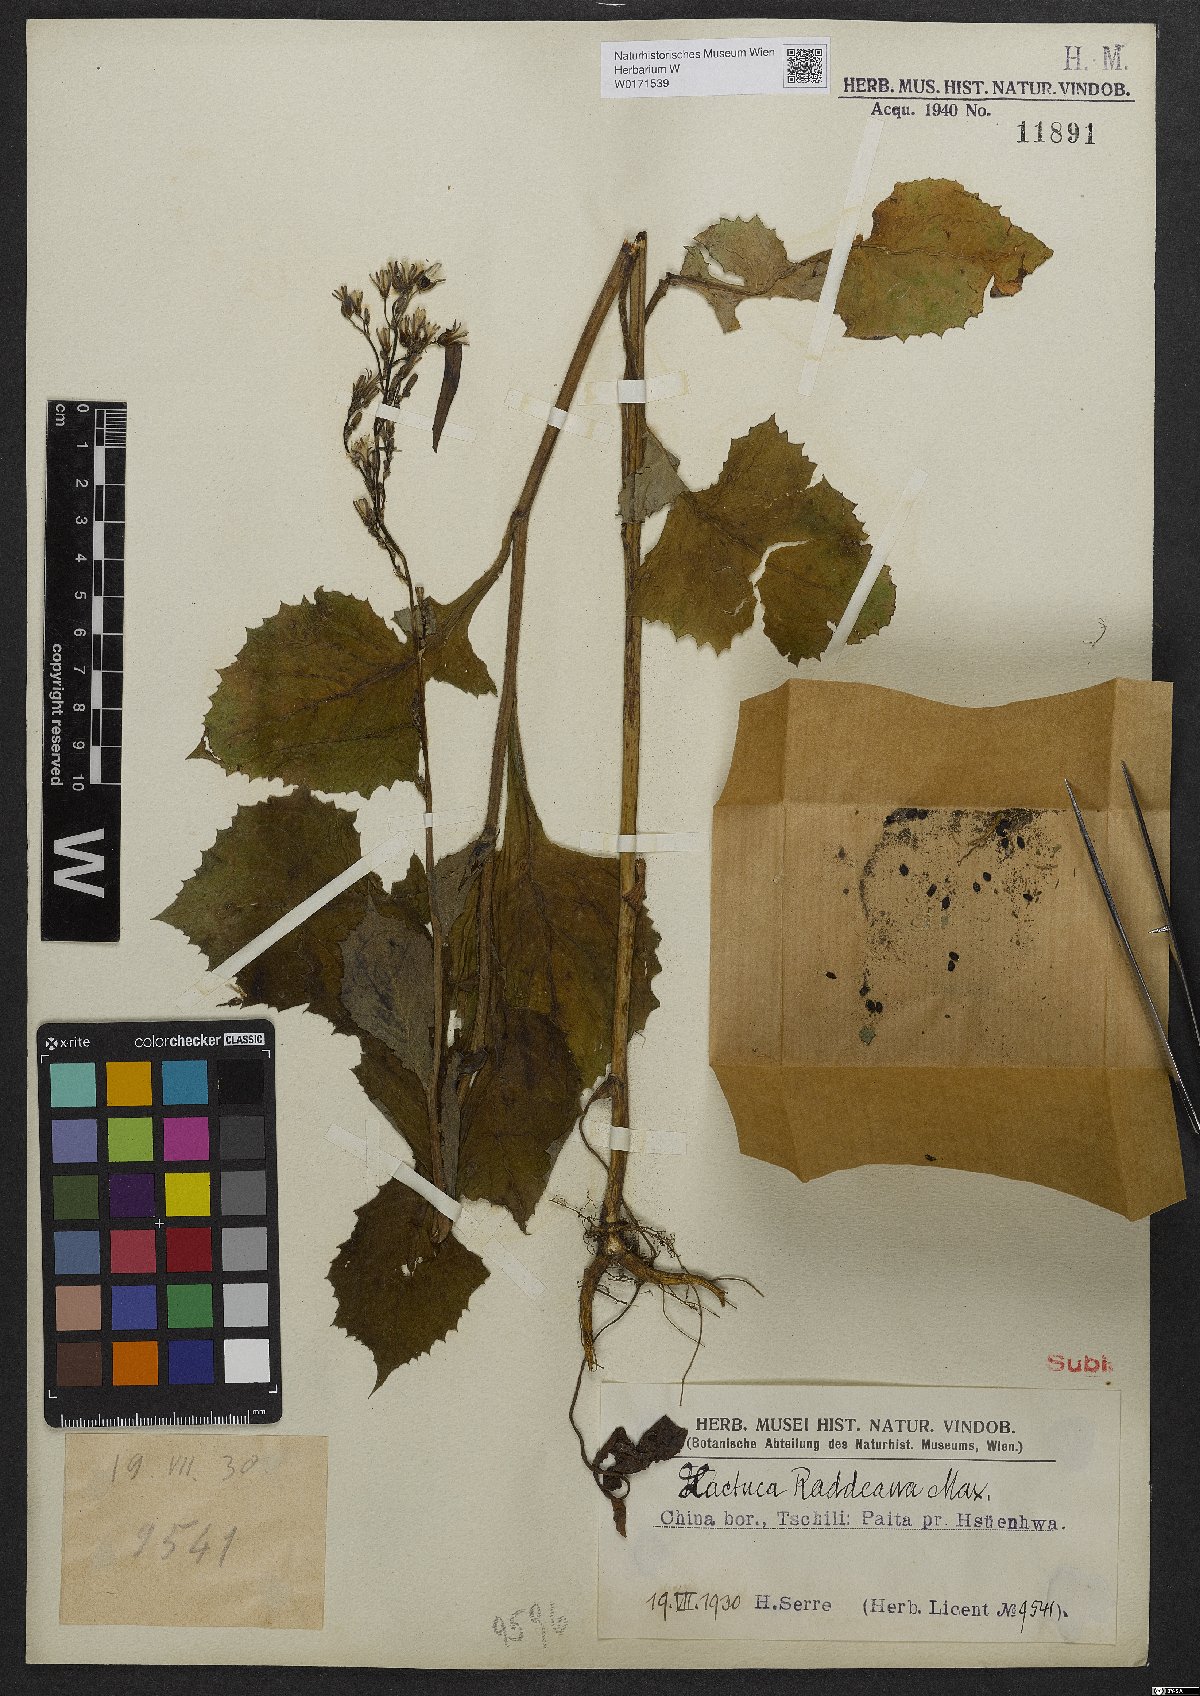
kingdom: Plantae
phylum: Tracheophyta
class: Magnoliopsida
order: Asterales
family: Asteraceae
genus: Lactuca
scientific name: Lactuca raddeana
